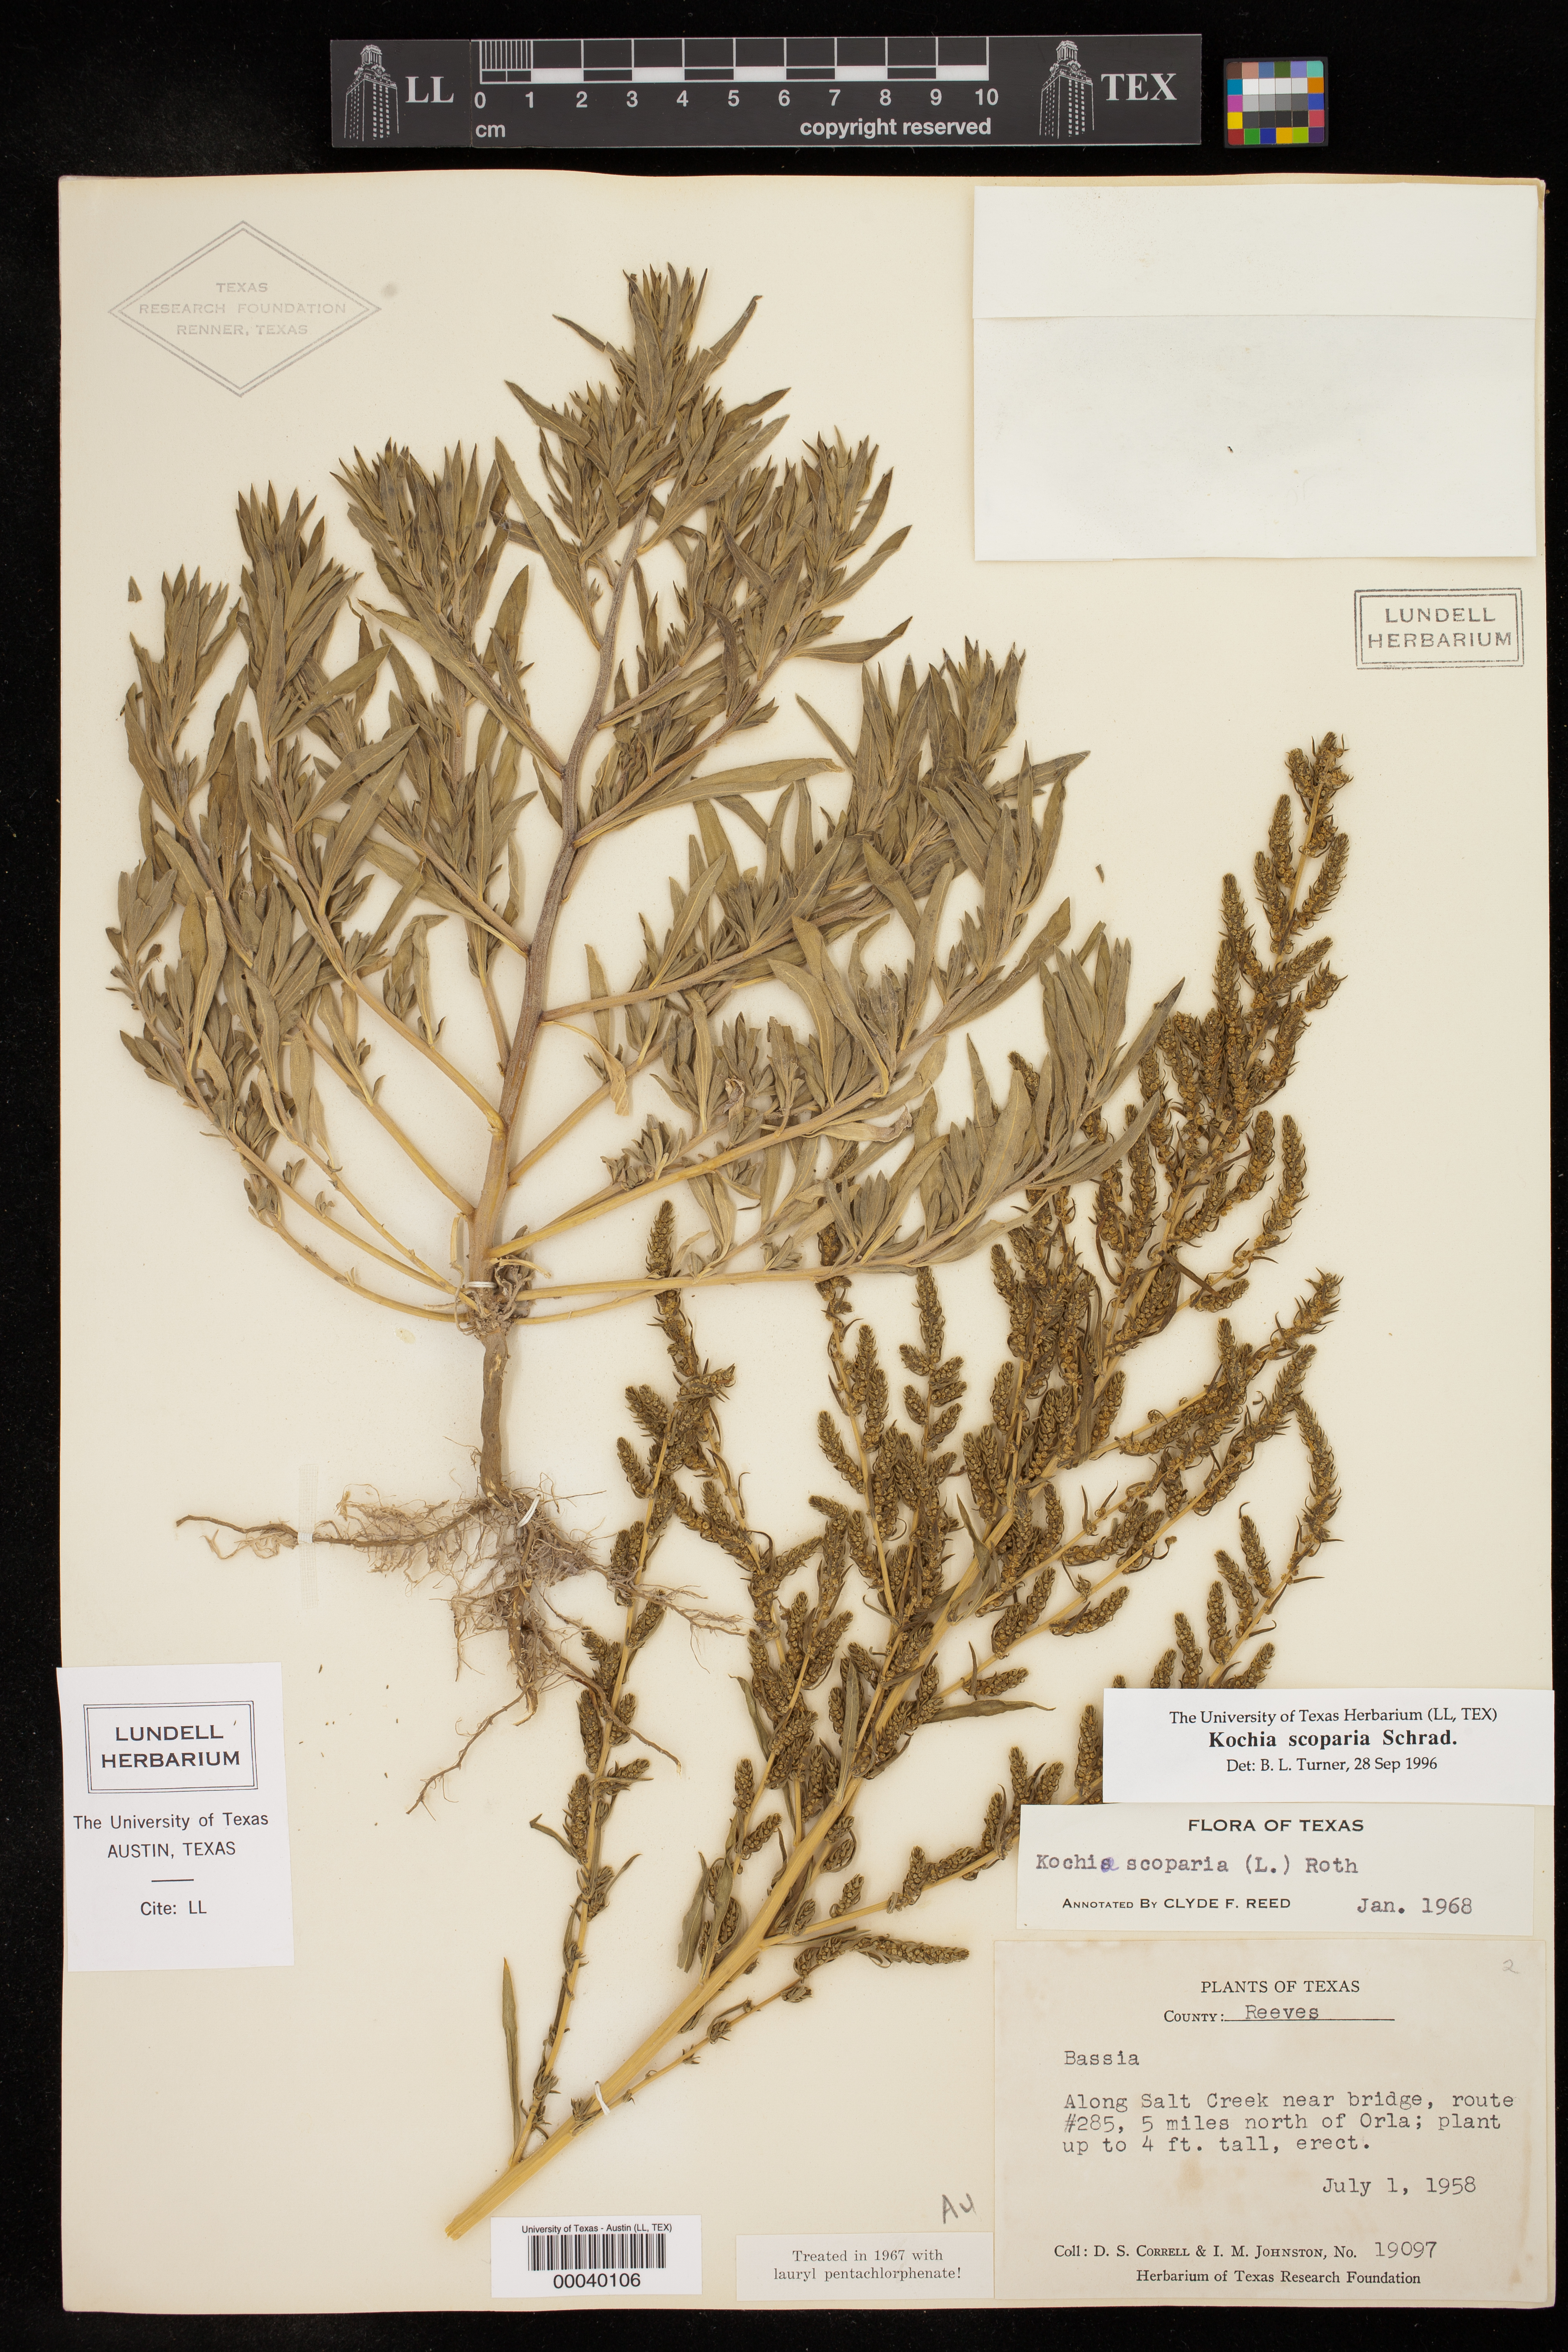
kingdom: Plantae
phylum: Tracheophyta
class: Magnoliopsida
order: Caryophyllales
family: Amaranthaceae
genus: Bassia
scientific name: Bassia scoparia
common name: Belvedere
